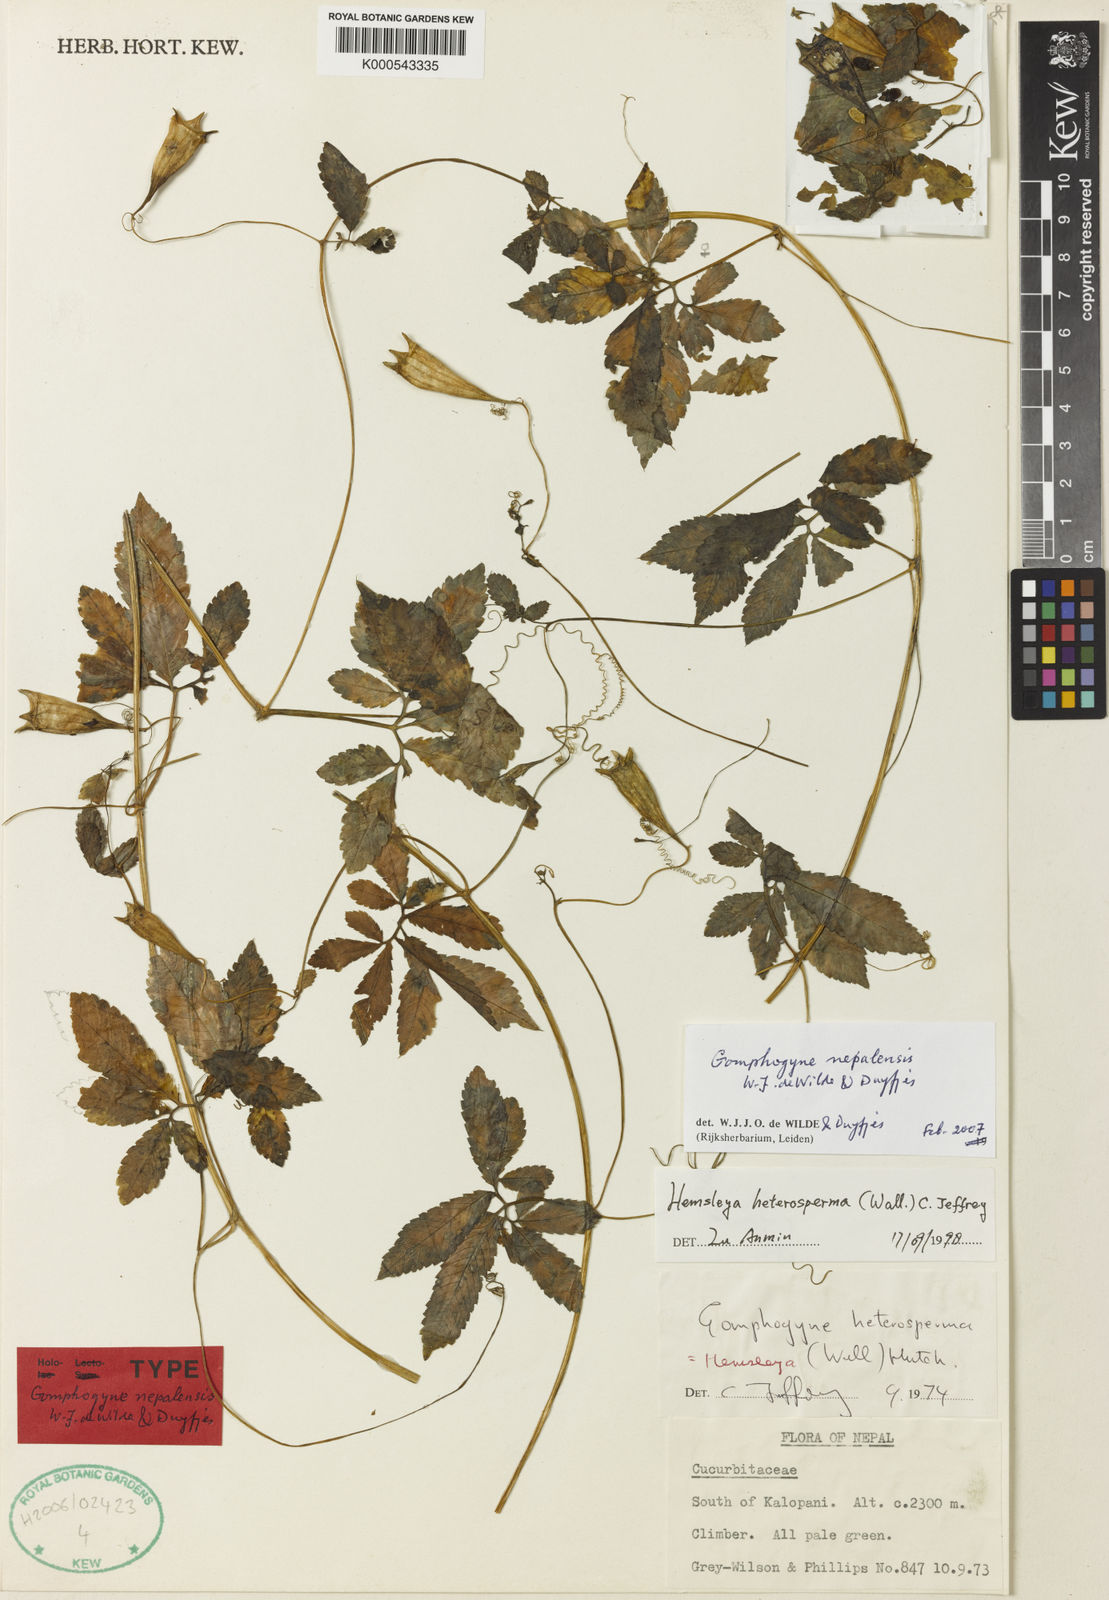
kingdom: Plantae
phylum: Tracheophyta
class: Magnoliopsida
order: Cucurbitales
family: Cucurbitaceae
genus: Gomphogyne
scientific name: Gomphogyne nepalensis
